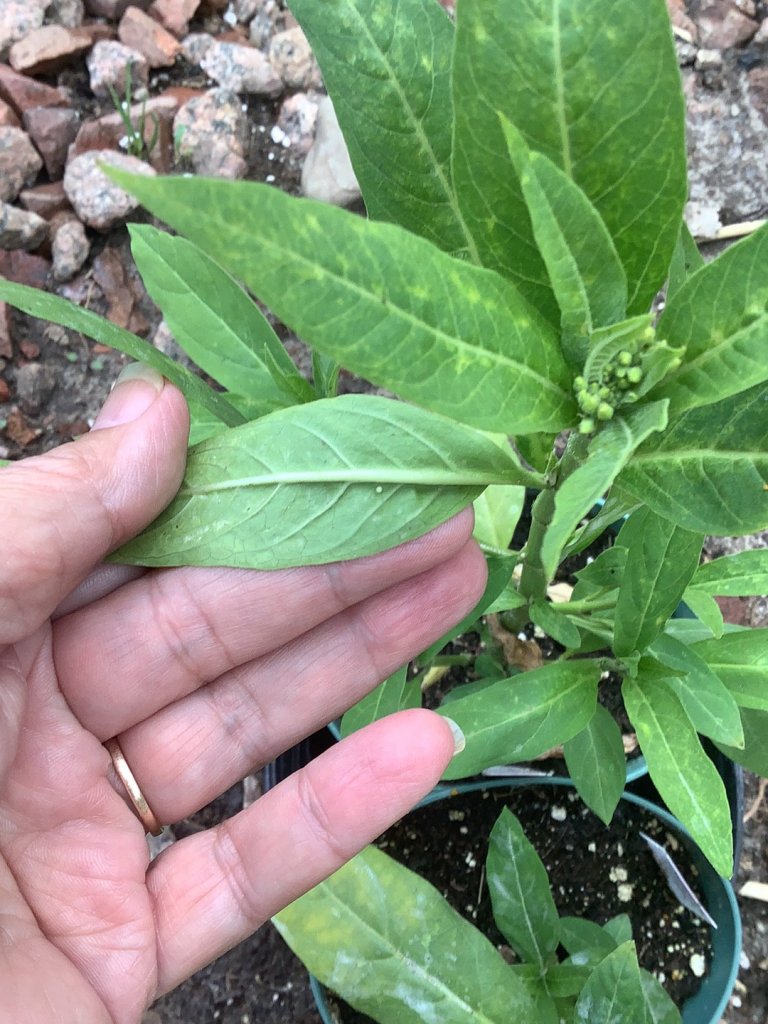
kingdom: Animalia
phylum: Arthropoda
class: Insecta
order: Lepidoptera
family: Nymphalidae
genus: Danaus
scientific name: Danaus plexippus
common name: Monarch
